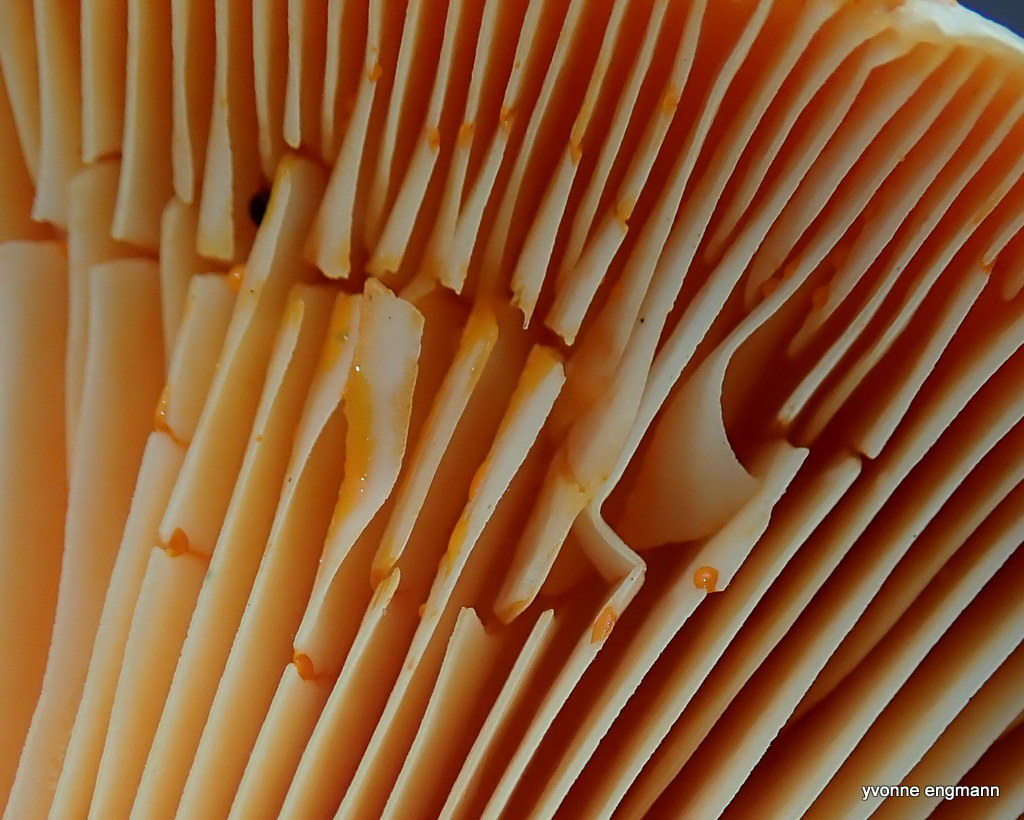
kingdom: Fungi
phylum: Basidiomycota
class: Agaricomycetes
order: Russulales
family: Russulaceae
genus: Lactarius
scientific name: Lactarius deterrimus
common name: gran-mælkehat
